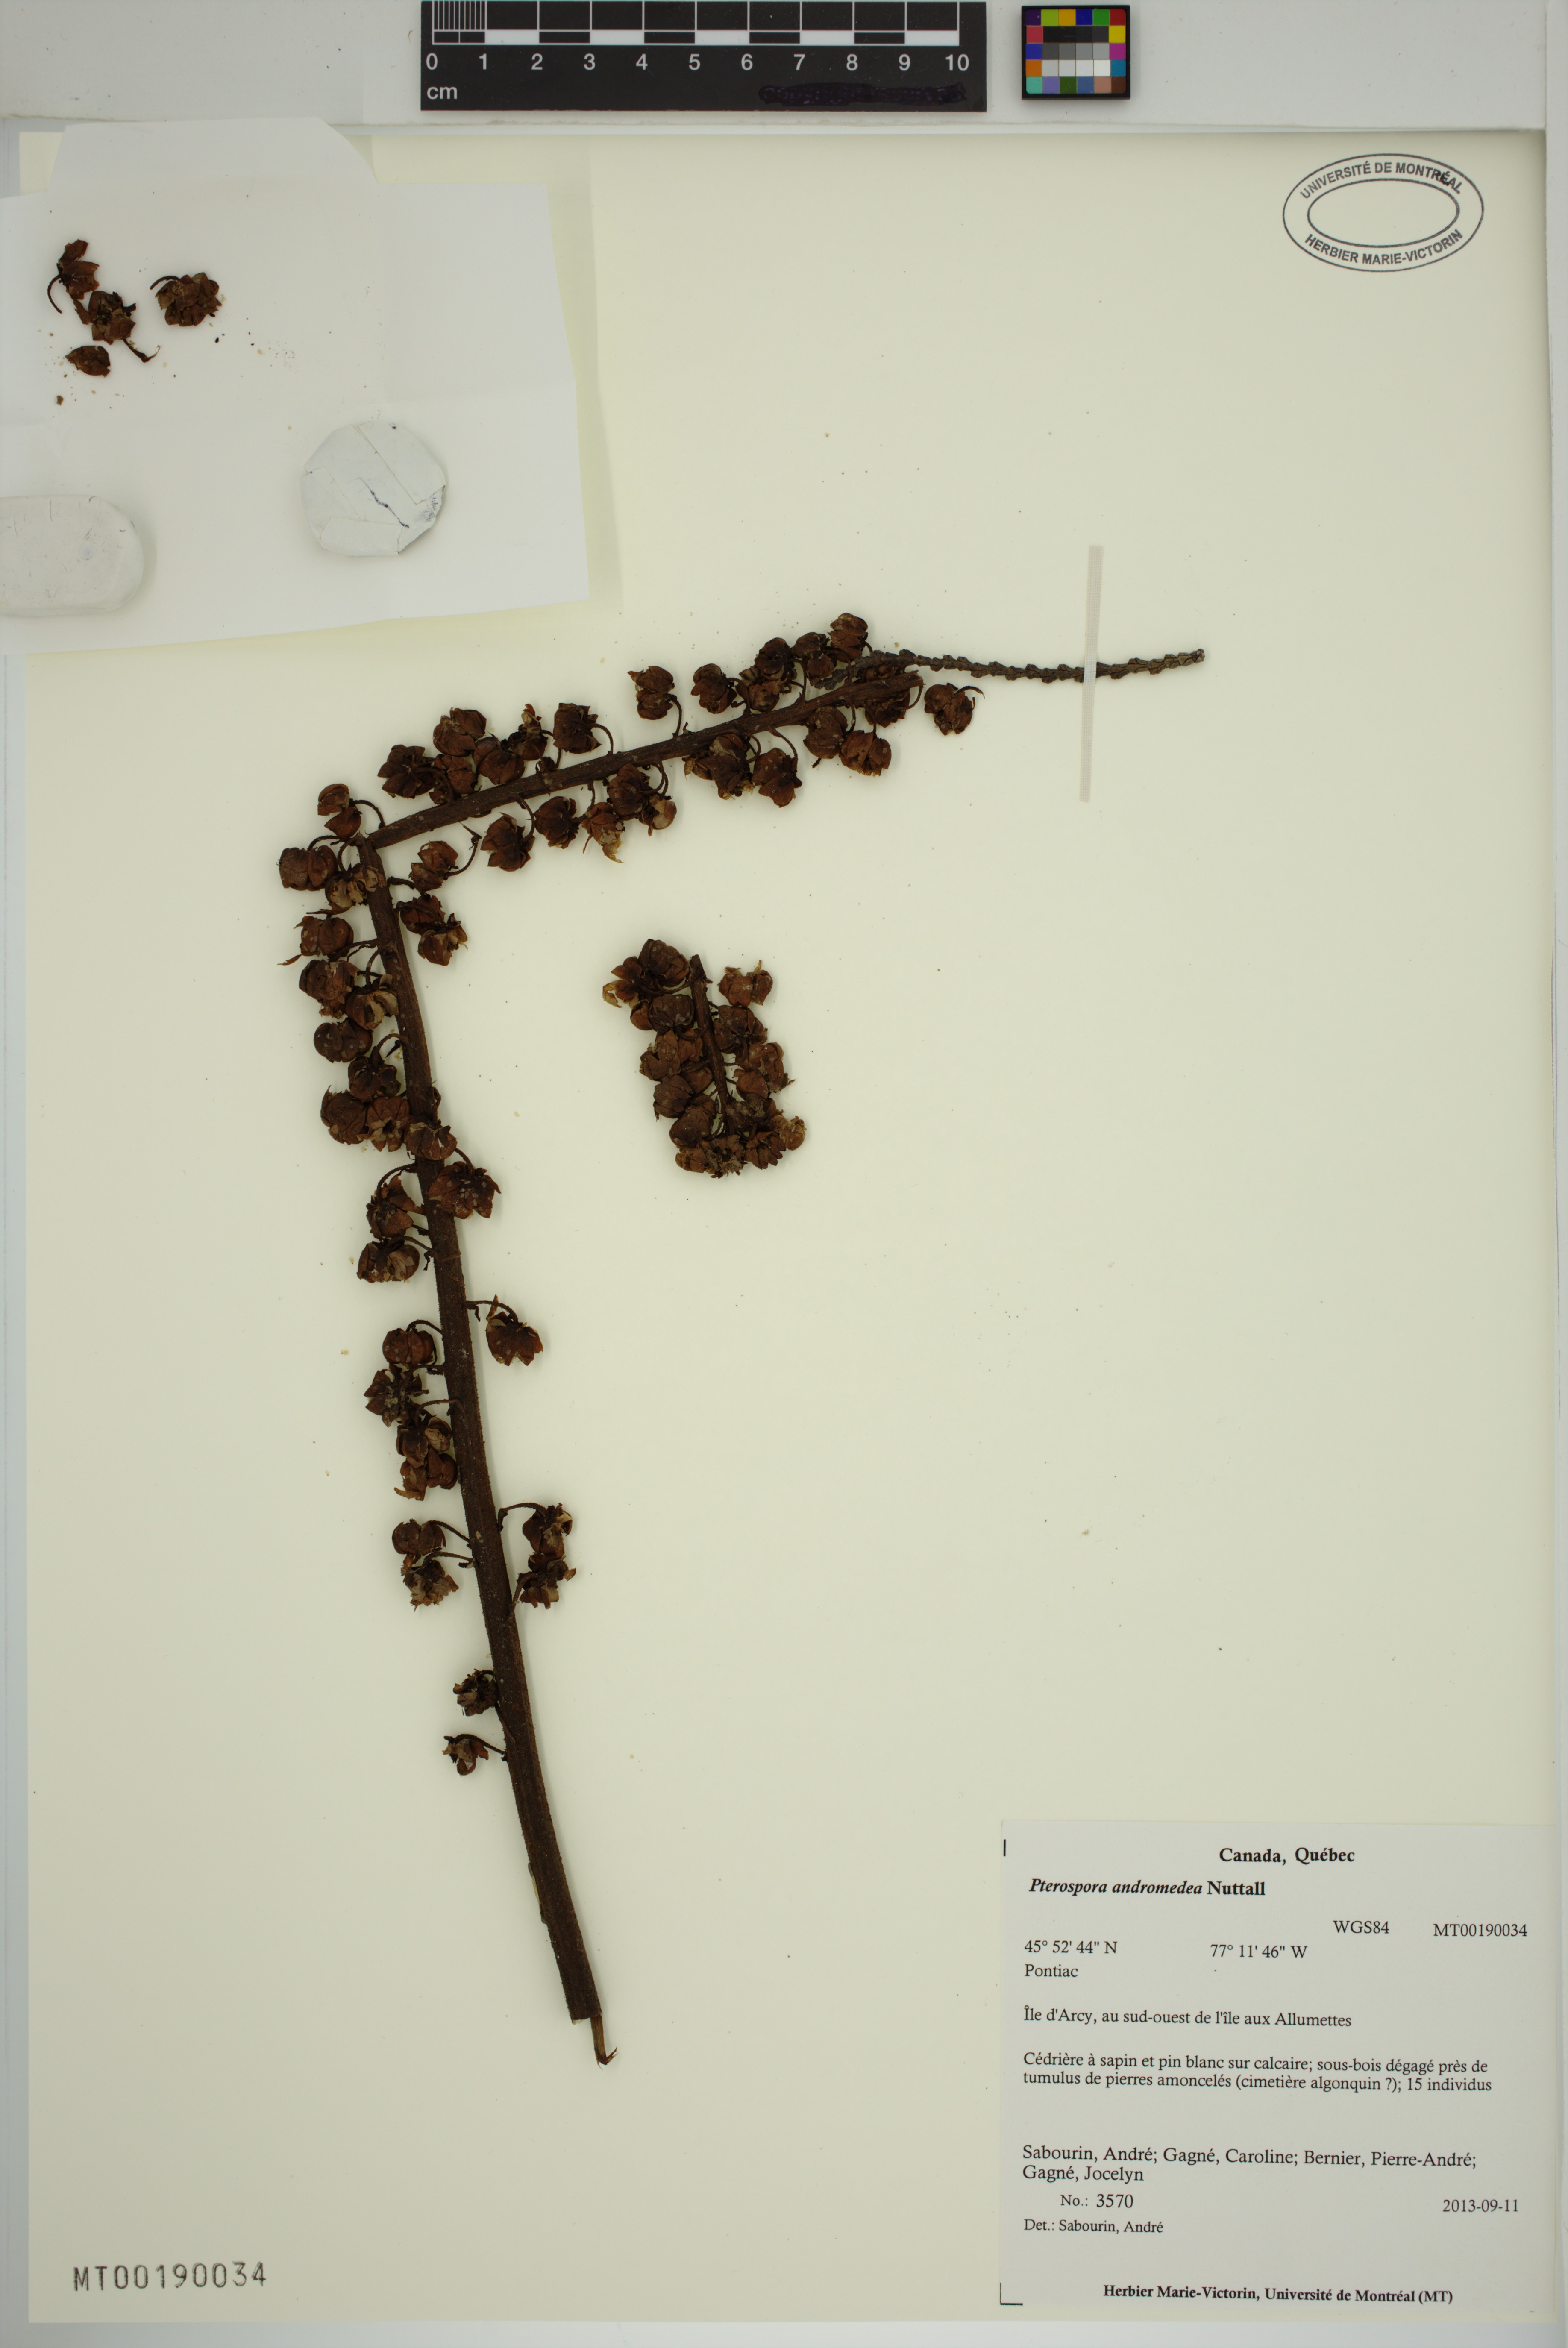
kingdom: Plantae
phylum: Tracheophyta
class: Magnoliopsida
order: Ericales
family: Ericaceae
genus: Pterospora
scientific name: Pterospora andromedea
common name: Giant bird's-nest
